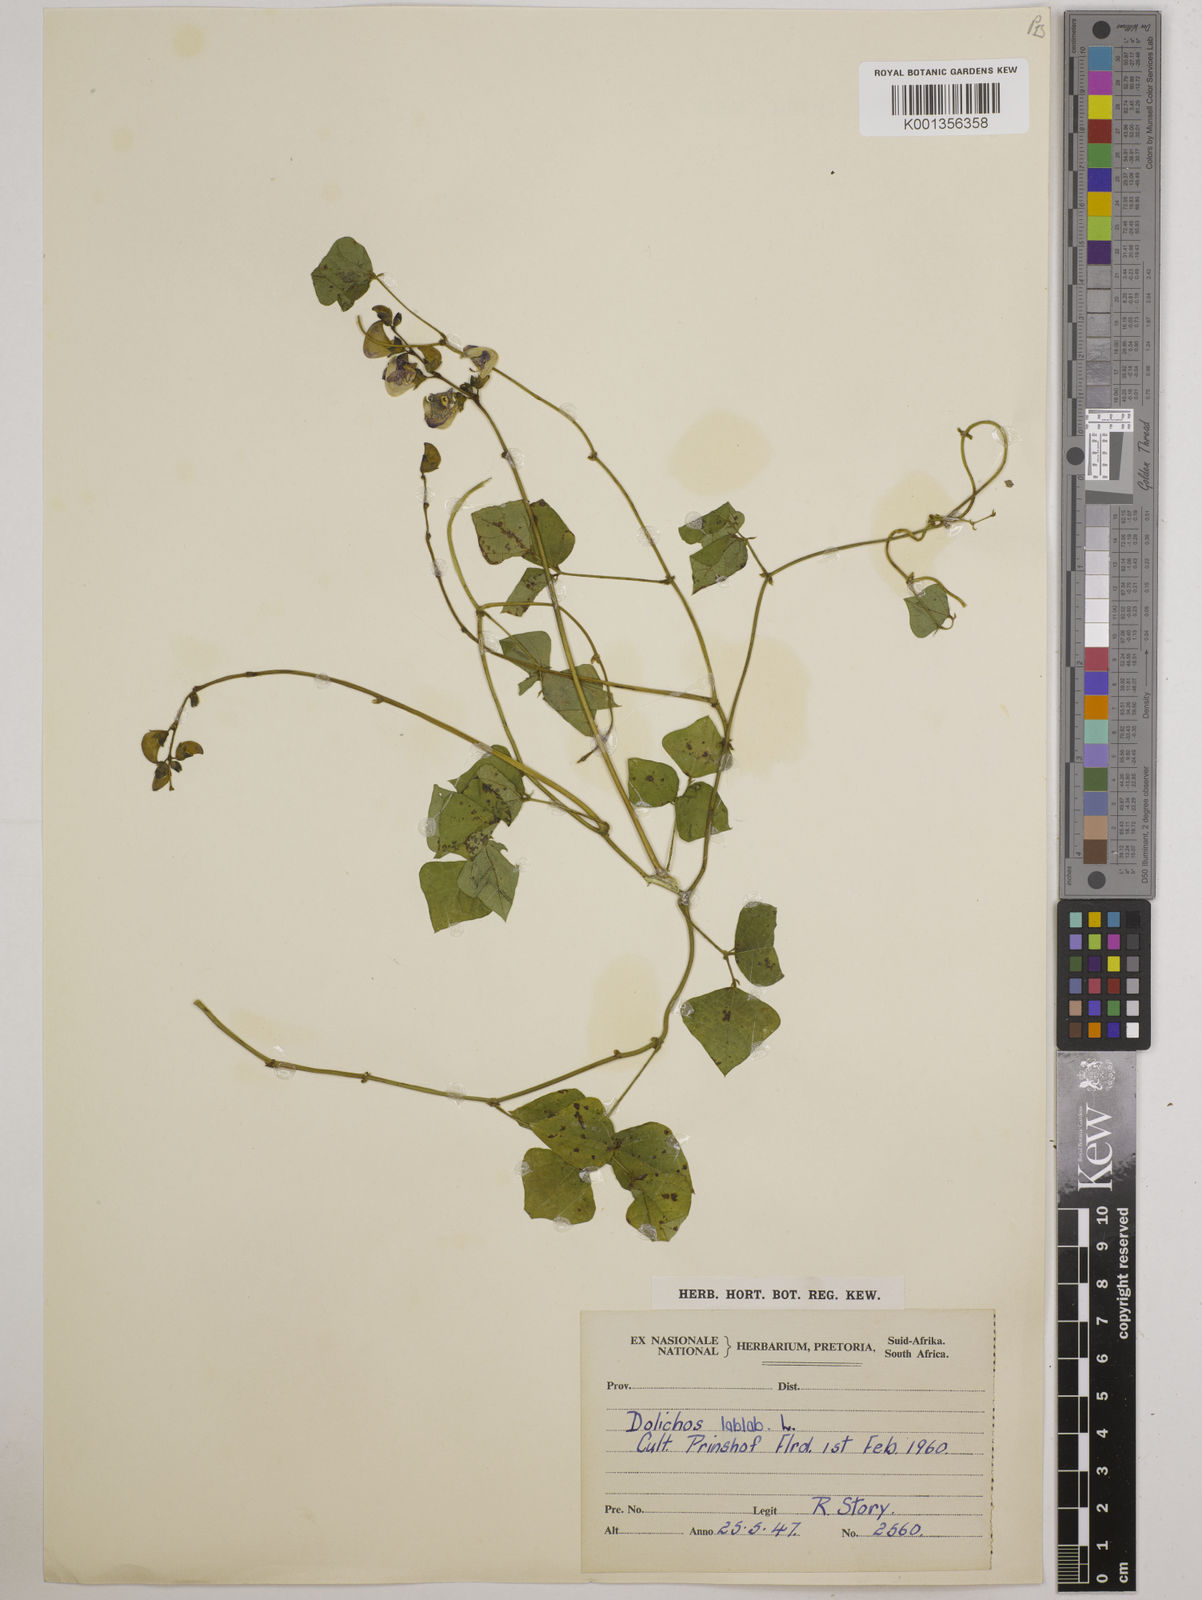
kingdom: Plantae
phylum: Tracheophyta
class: Magnoliopsida
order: Fabales
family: Fabaceae
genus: Lablab
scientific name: Lablab purpureus
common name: Lablab-bean
